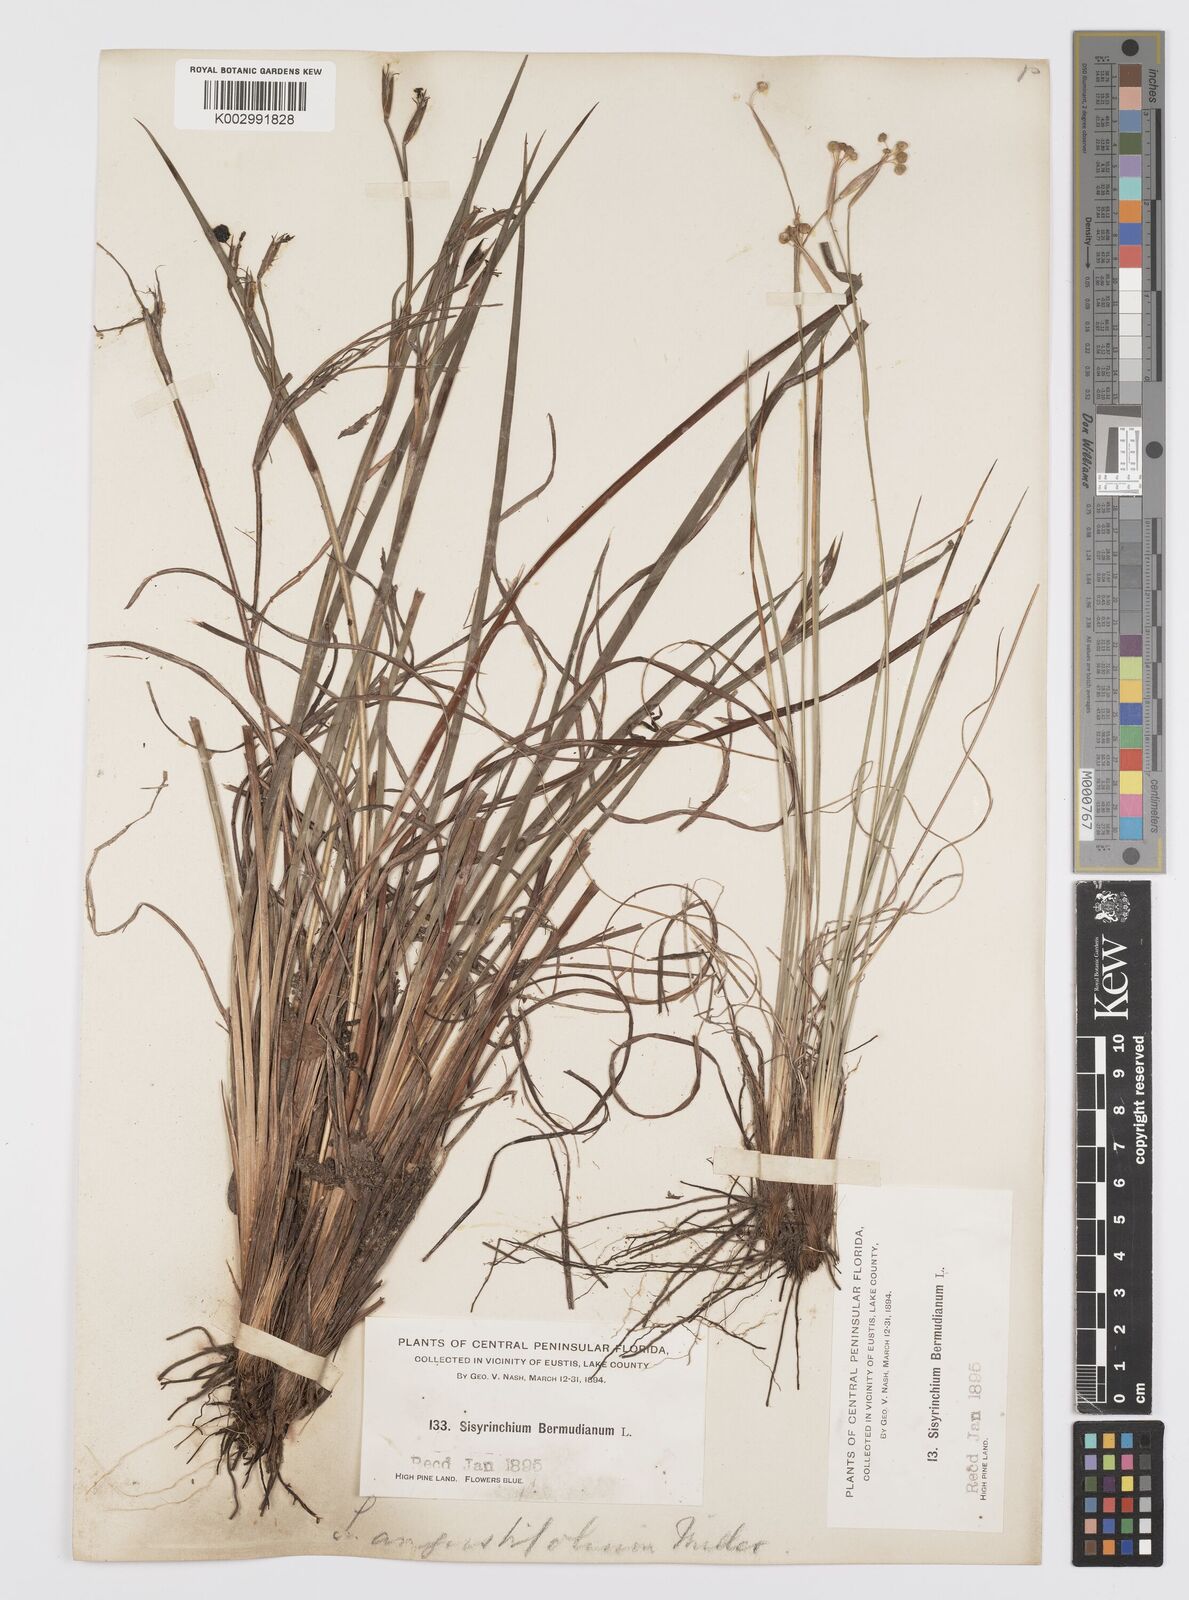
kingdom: Plantae
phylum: Tracheophyta
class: Liliopsida
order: Asparagales
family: Iridaceae
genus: Sisyrinchium
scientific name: Sisyrinchium bermudiana
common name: Blue-eyed-grass
